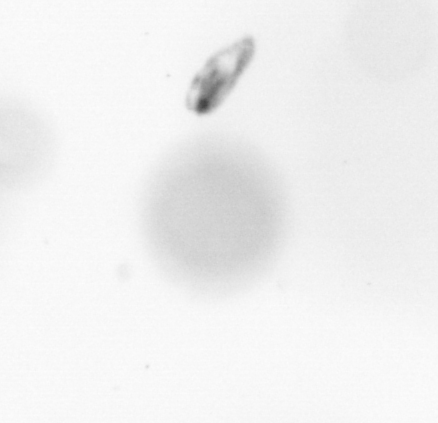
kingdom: Animalia
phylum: Arthropoda
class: Copepoda
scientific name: Copepoda
